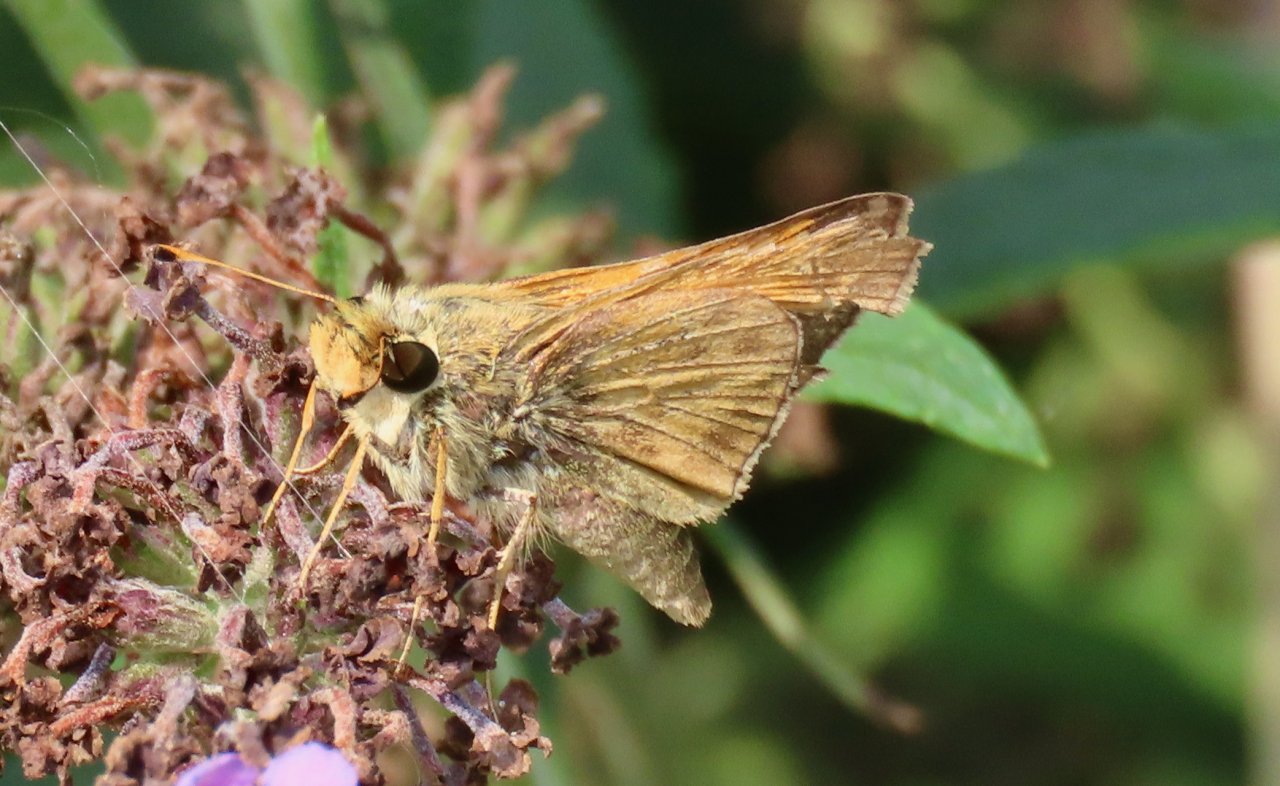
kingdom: Animalia
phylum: Arthropoda
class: Insecta
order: Lepidoptera
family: Hesperiidae
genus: Atalopedes
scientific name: Atalopedes campestris
